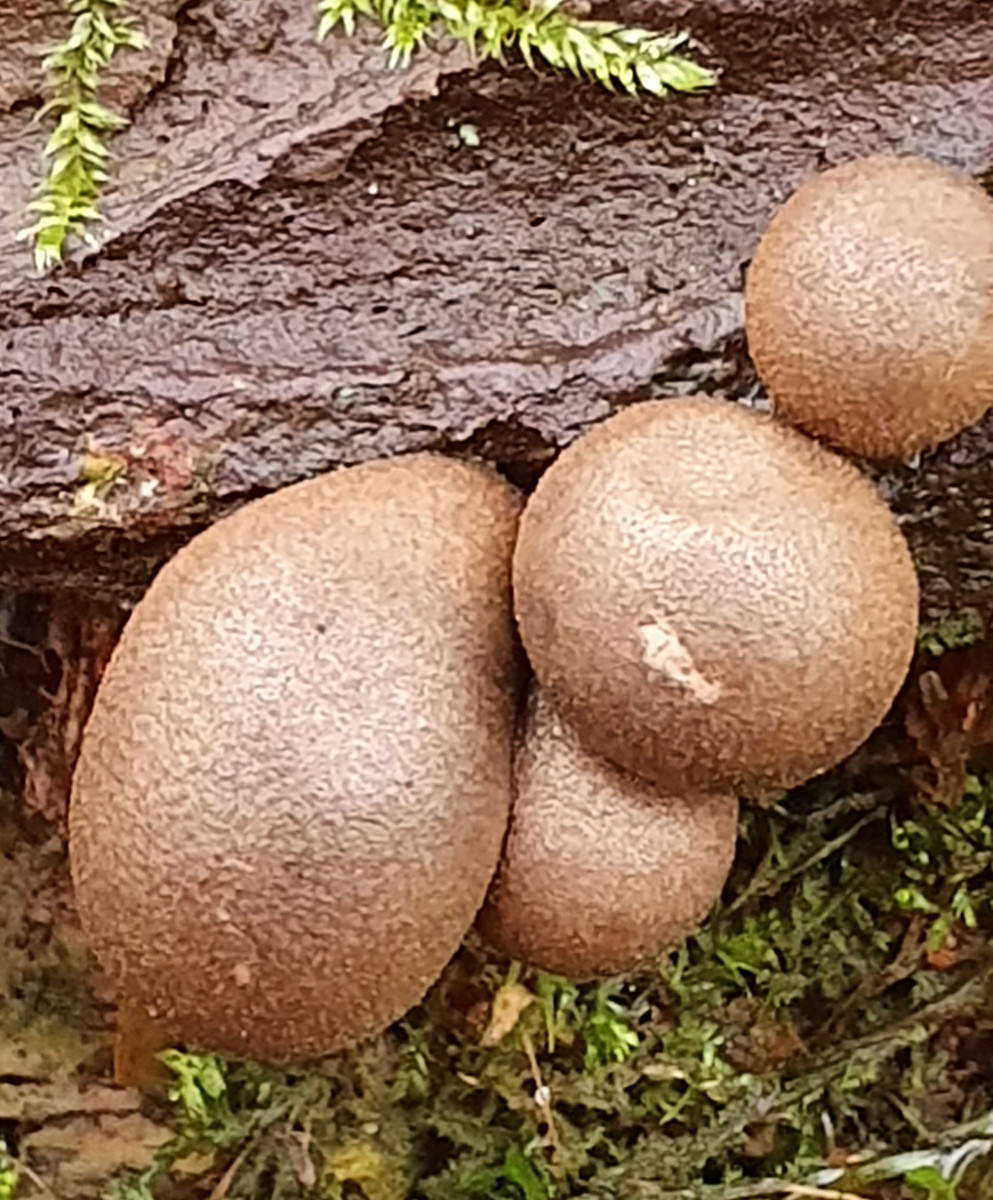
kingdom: Protozoa
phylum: Mycetozoa
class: Myxomycetes
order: Cribrariales
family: Tubiferaceae
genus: Lycogala
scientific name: Lycogala epidendrum
